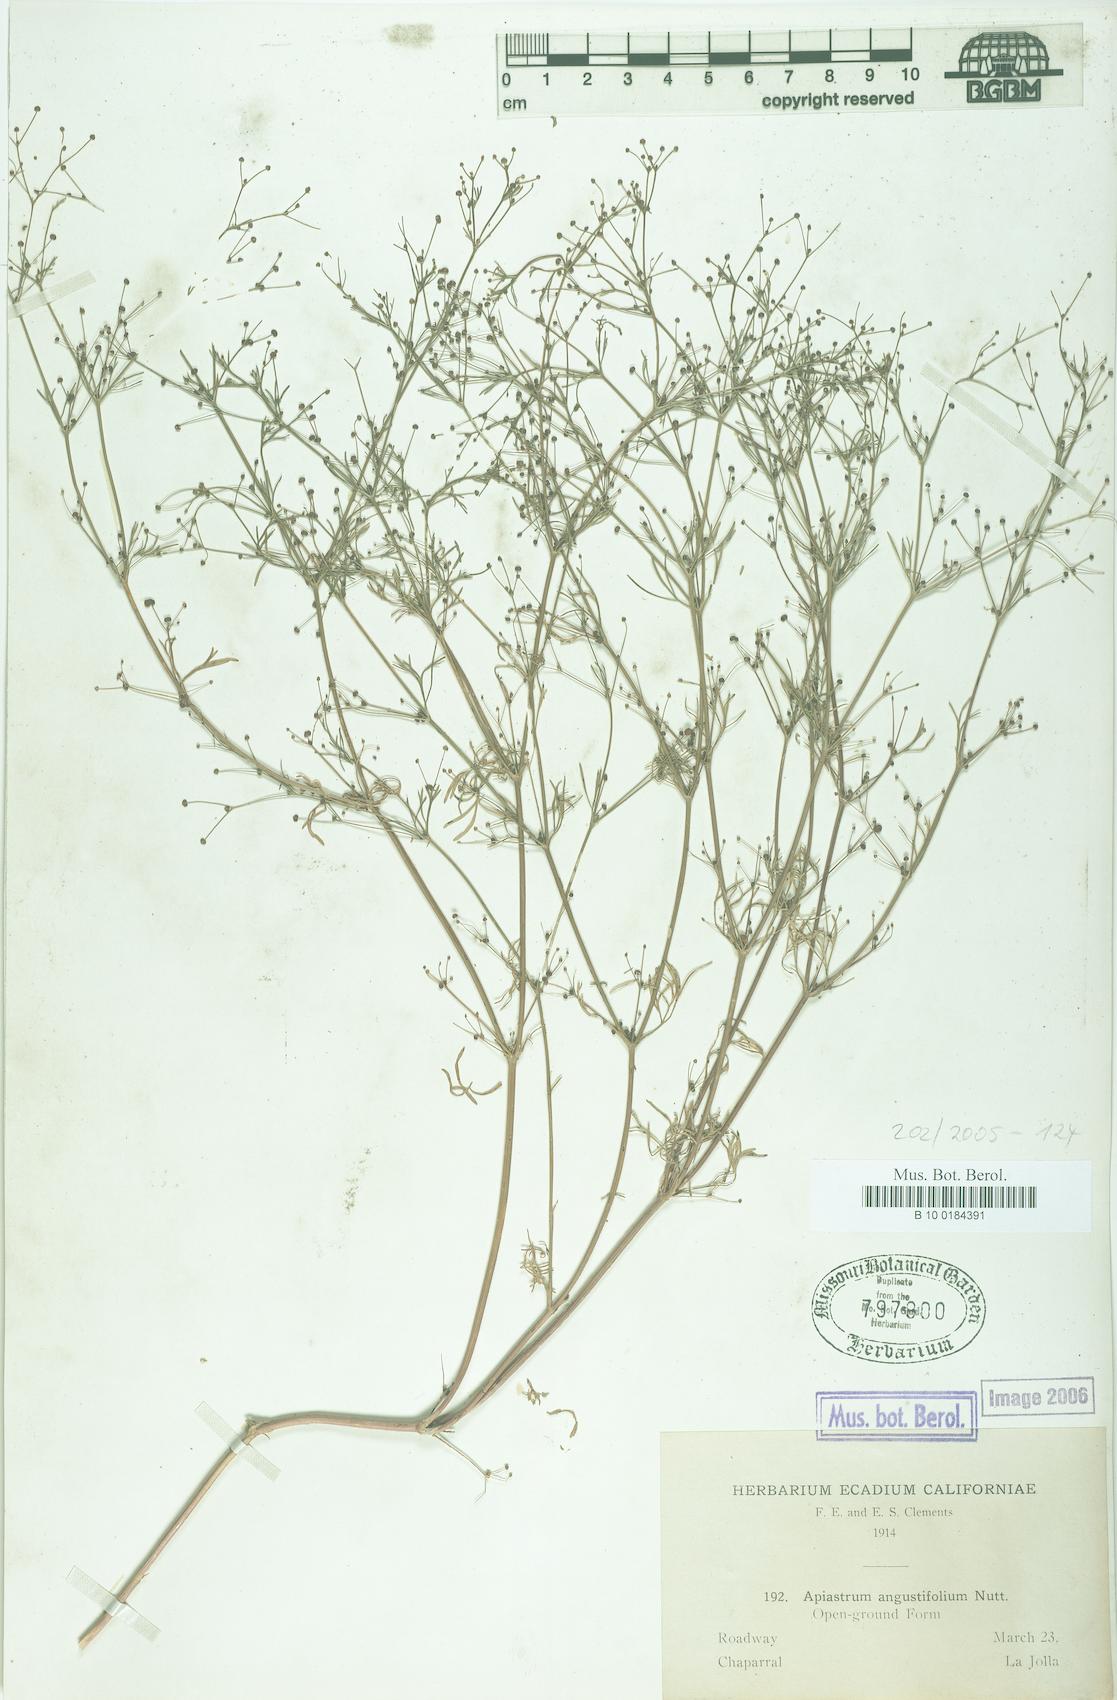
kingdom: Plantae
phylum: Tracheophyta
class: Magnoliopsida
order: Apiales
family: Apiaceae
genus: Apiastrum
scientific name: Apiastrum angustifolium
